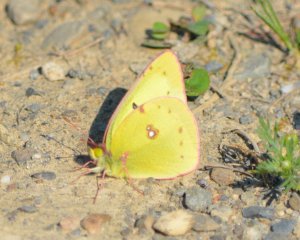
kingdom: Animalia
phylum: Arthropoda
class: Insecta
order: Lepidoptera
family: Pieridae
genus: Colias
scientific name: Colias philodice
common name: Clouded Sulphur
